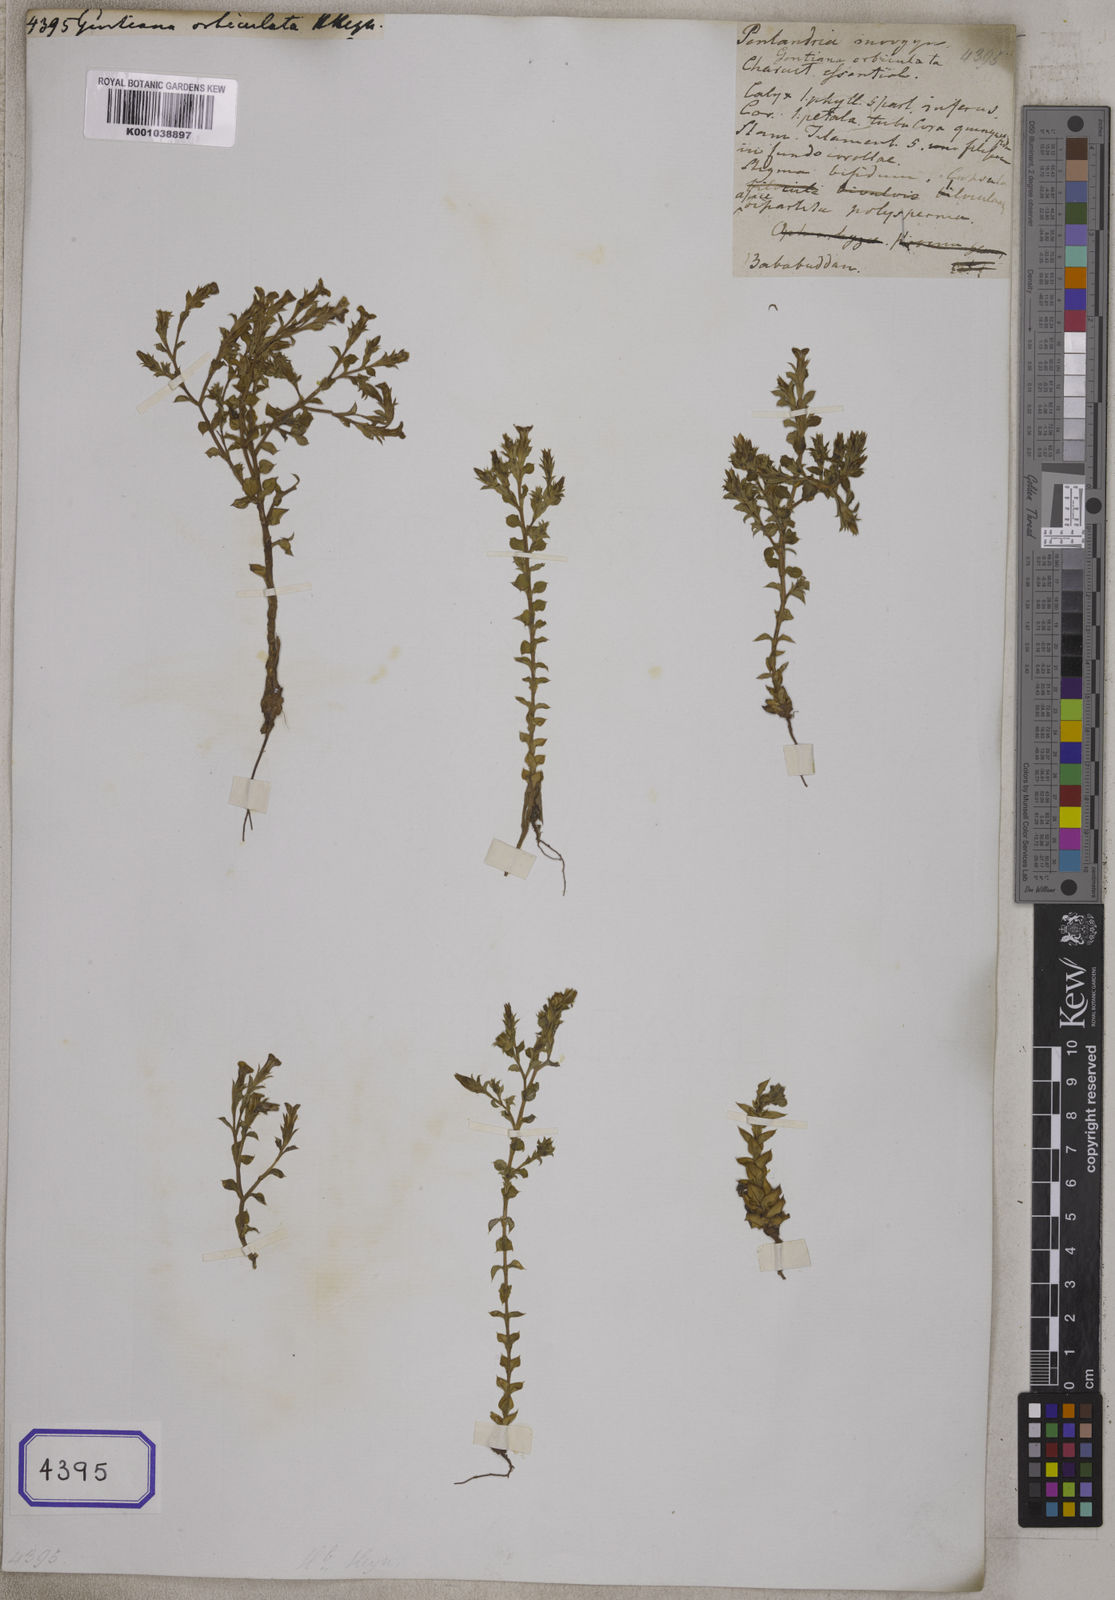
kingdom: Plantae
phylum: Tracheophyta
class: Magnoliopsida
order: Gentianales
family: Gentianaceae
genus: Gentiana
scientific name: Gentiana pedicellata
